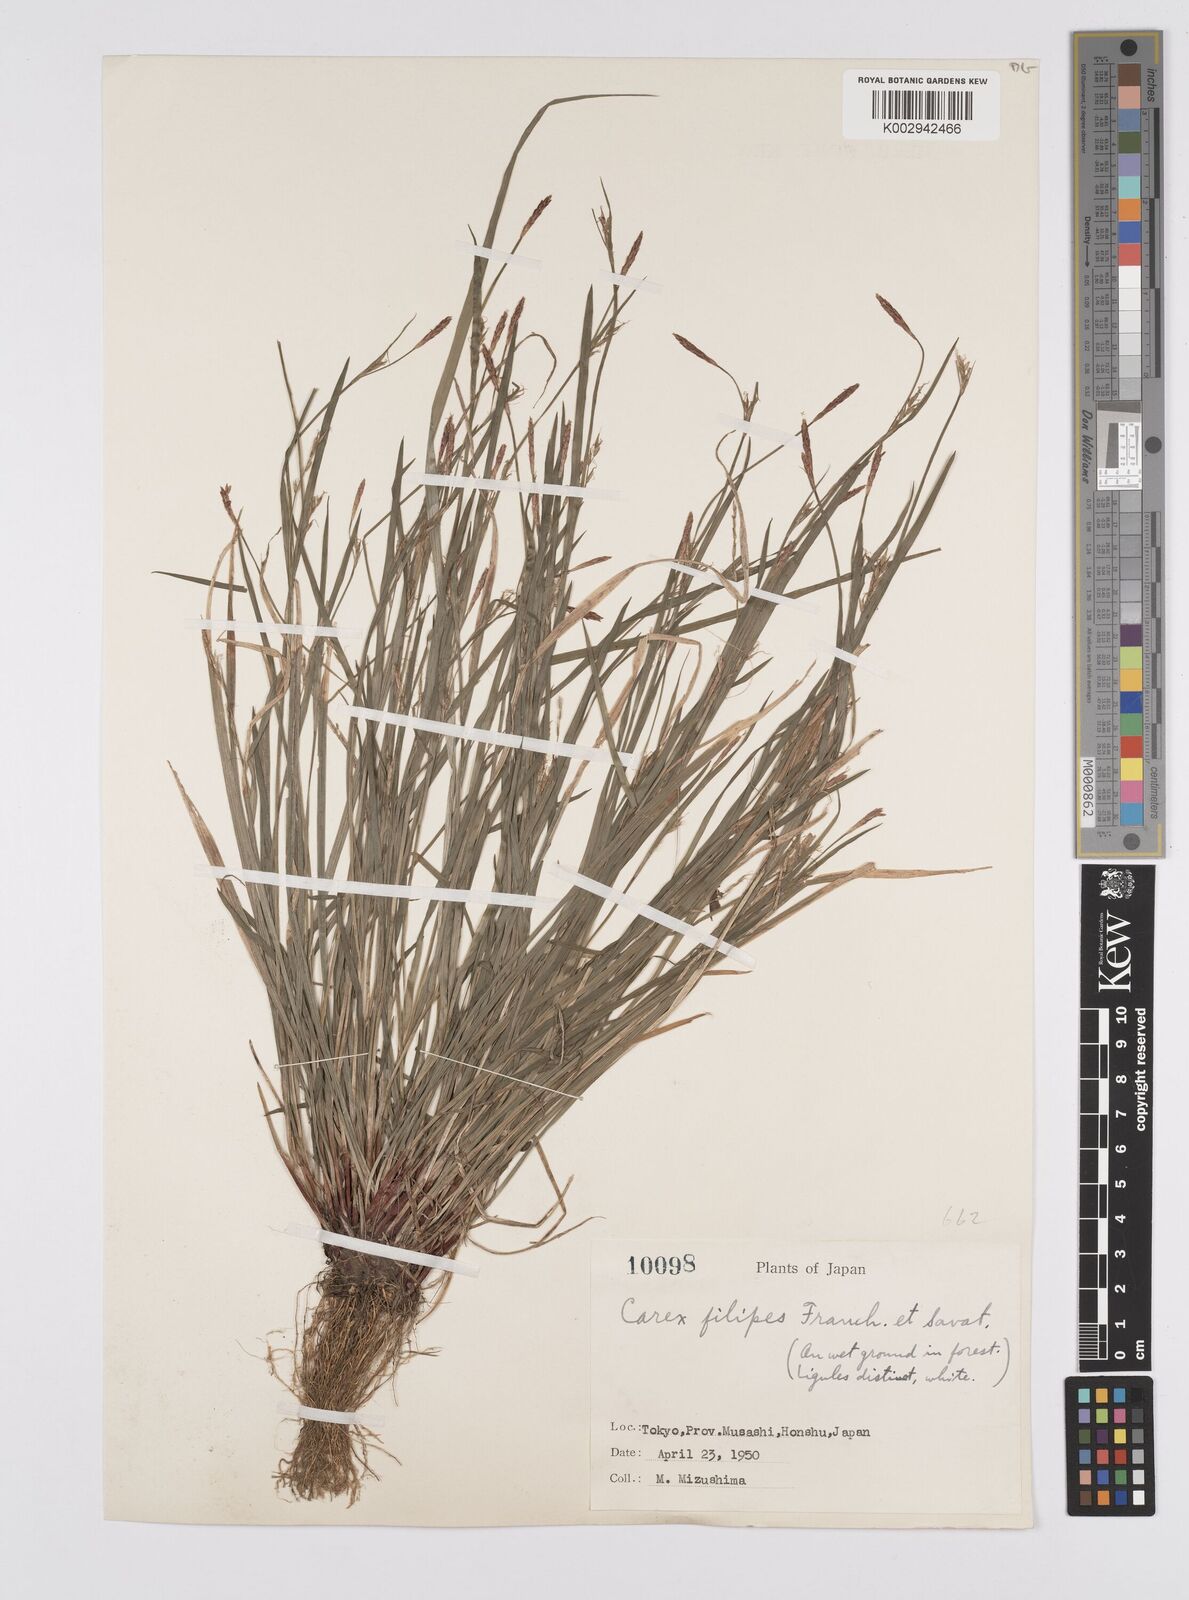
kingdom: Plantae
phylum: Tracheophyta
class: Liliopsida
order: Poales
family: Cyperaceae
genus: Carex
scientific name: Carex filipes
